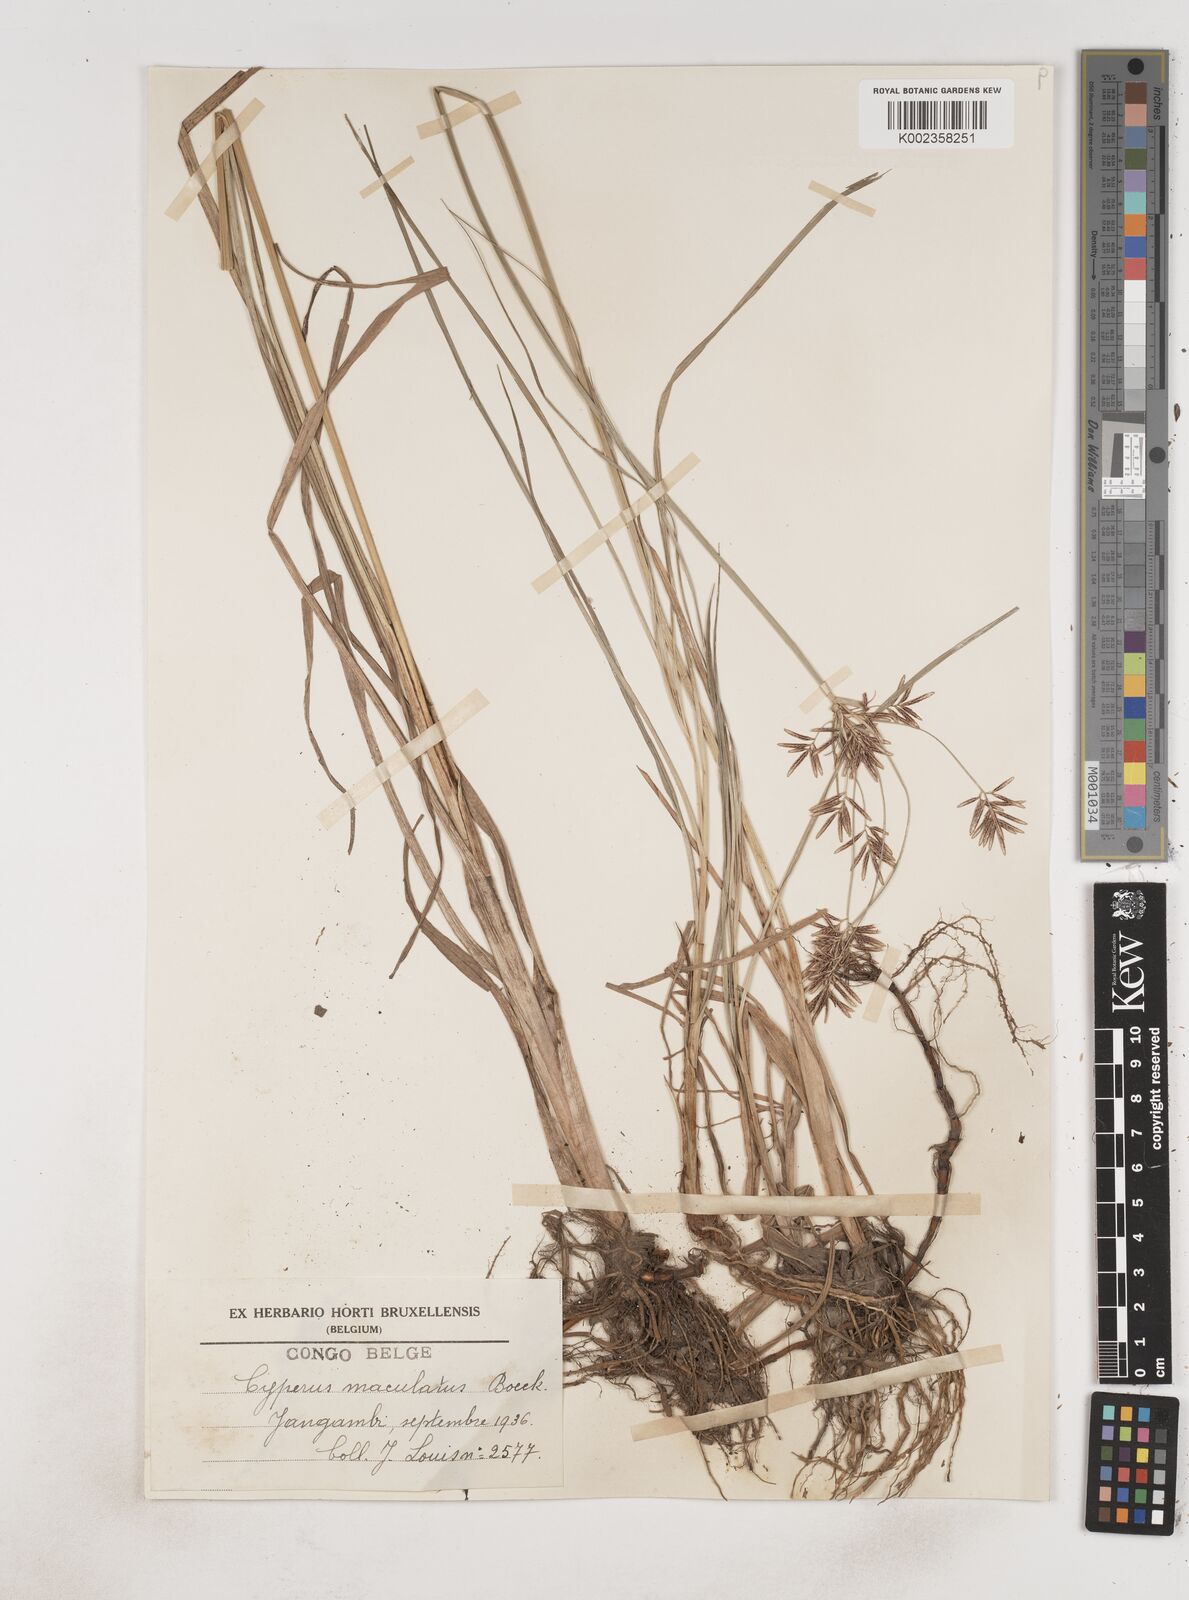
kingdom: Plantae
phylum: Tracheophyta
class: Liliopsida
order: Poales
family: Cyperaceae
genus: Cyperus
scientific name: Cyperus maculatus
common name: Maculated sedge
